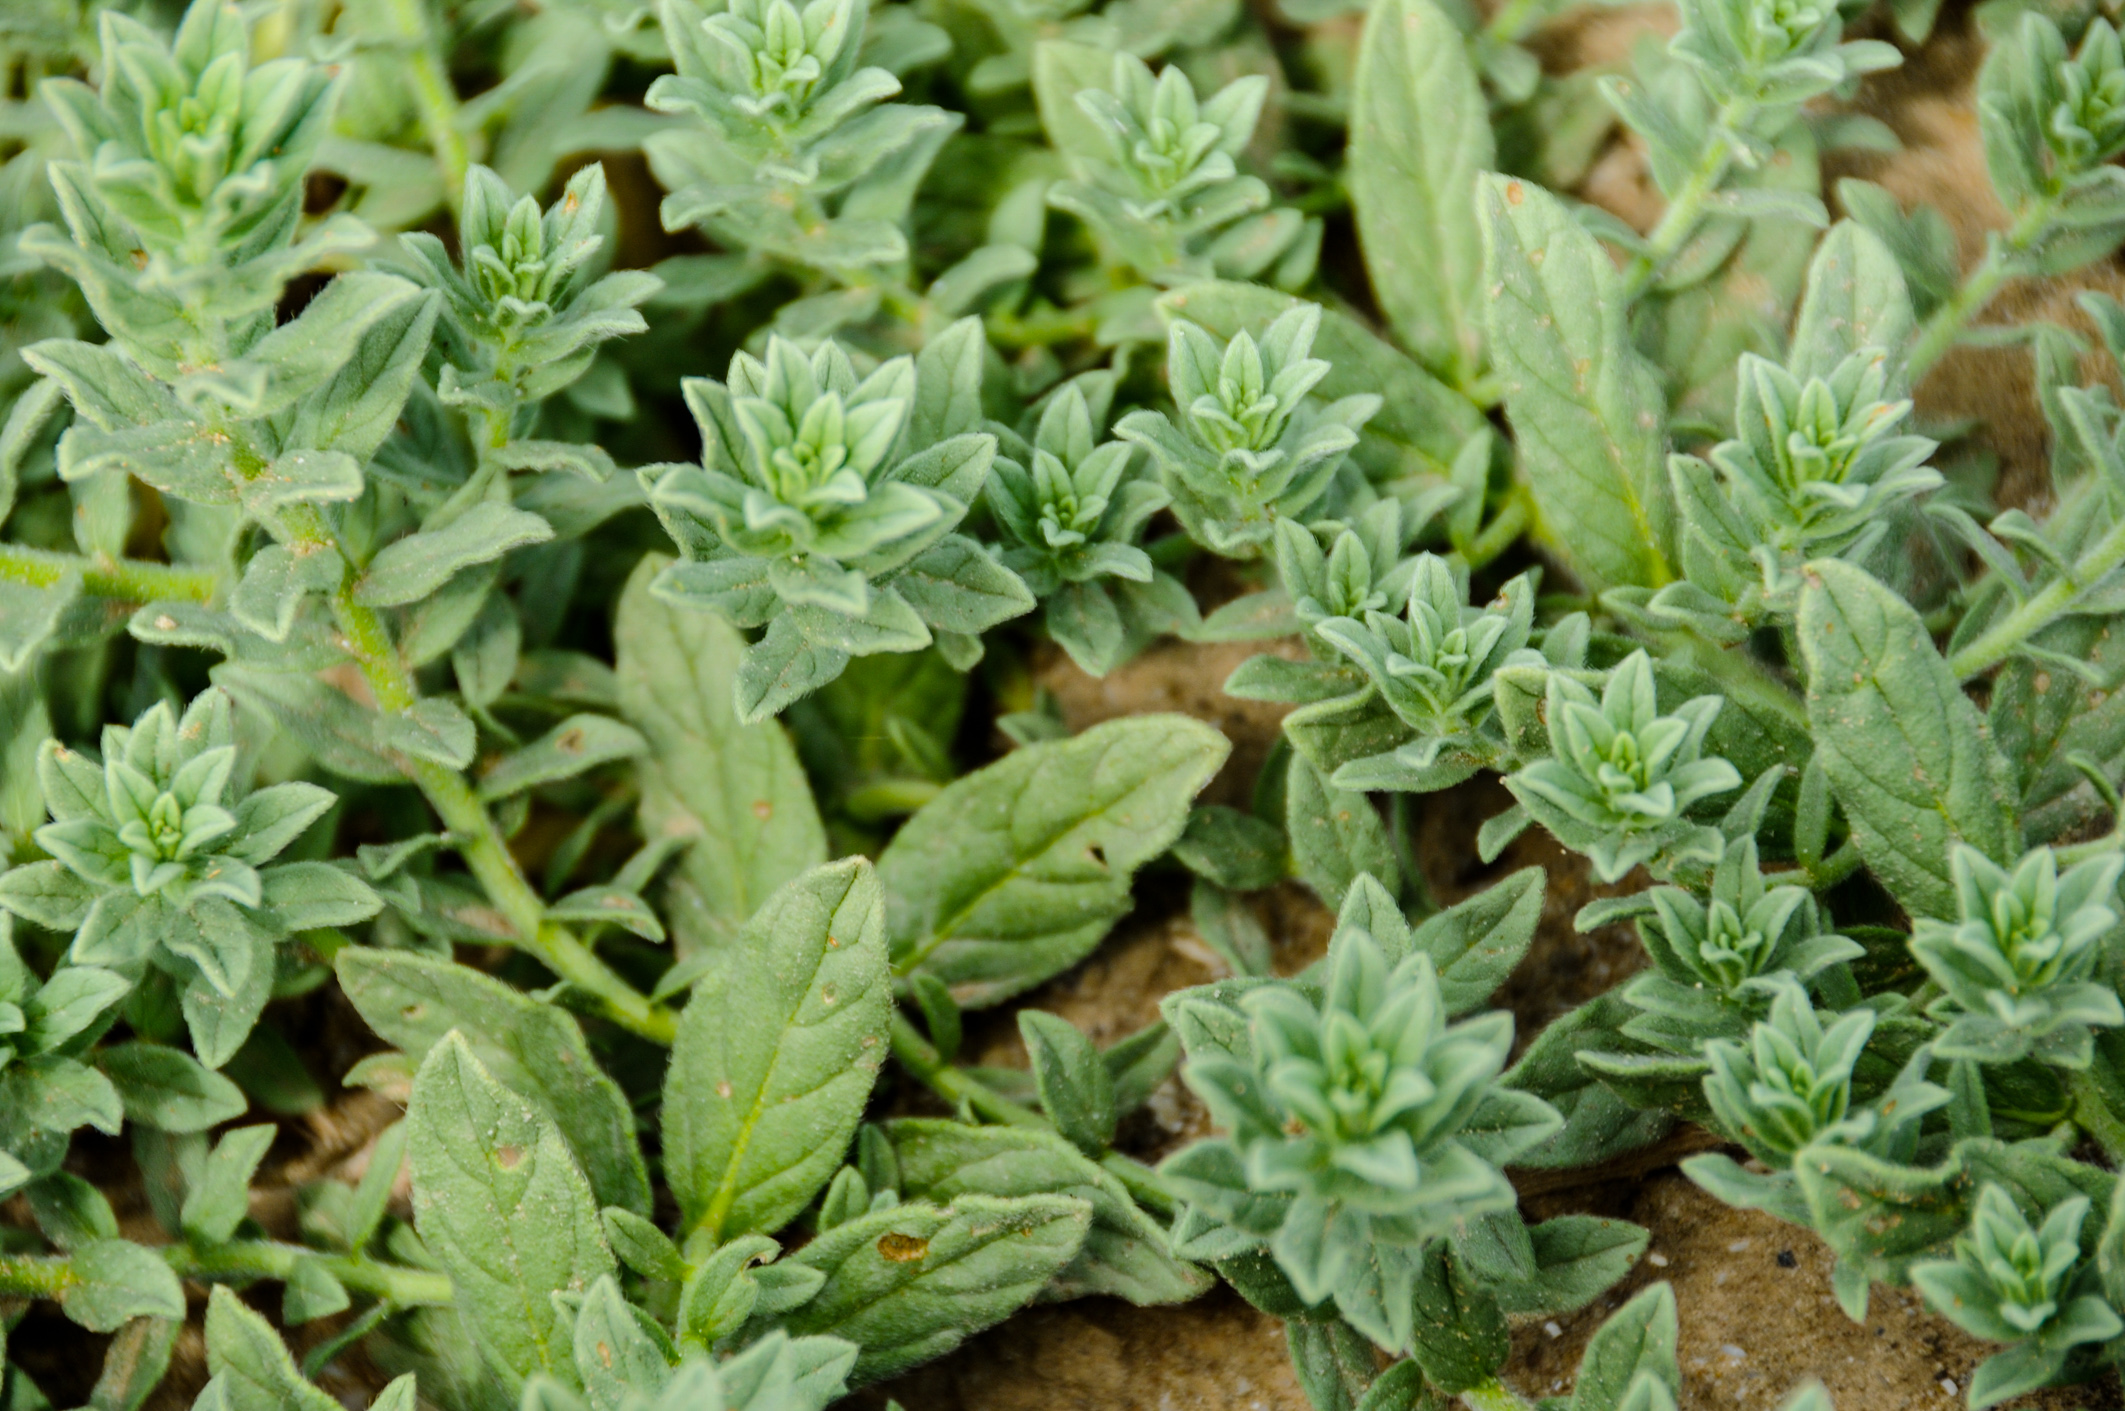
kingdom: Plantae
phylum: Tracheophyta
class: Magnoliopsida
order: Boraginales
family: Heliotropiaceae
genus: Tournefortia
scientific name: Tournefortia sibirica
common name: Siberian sea rosemary
